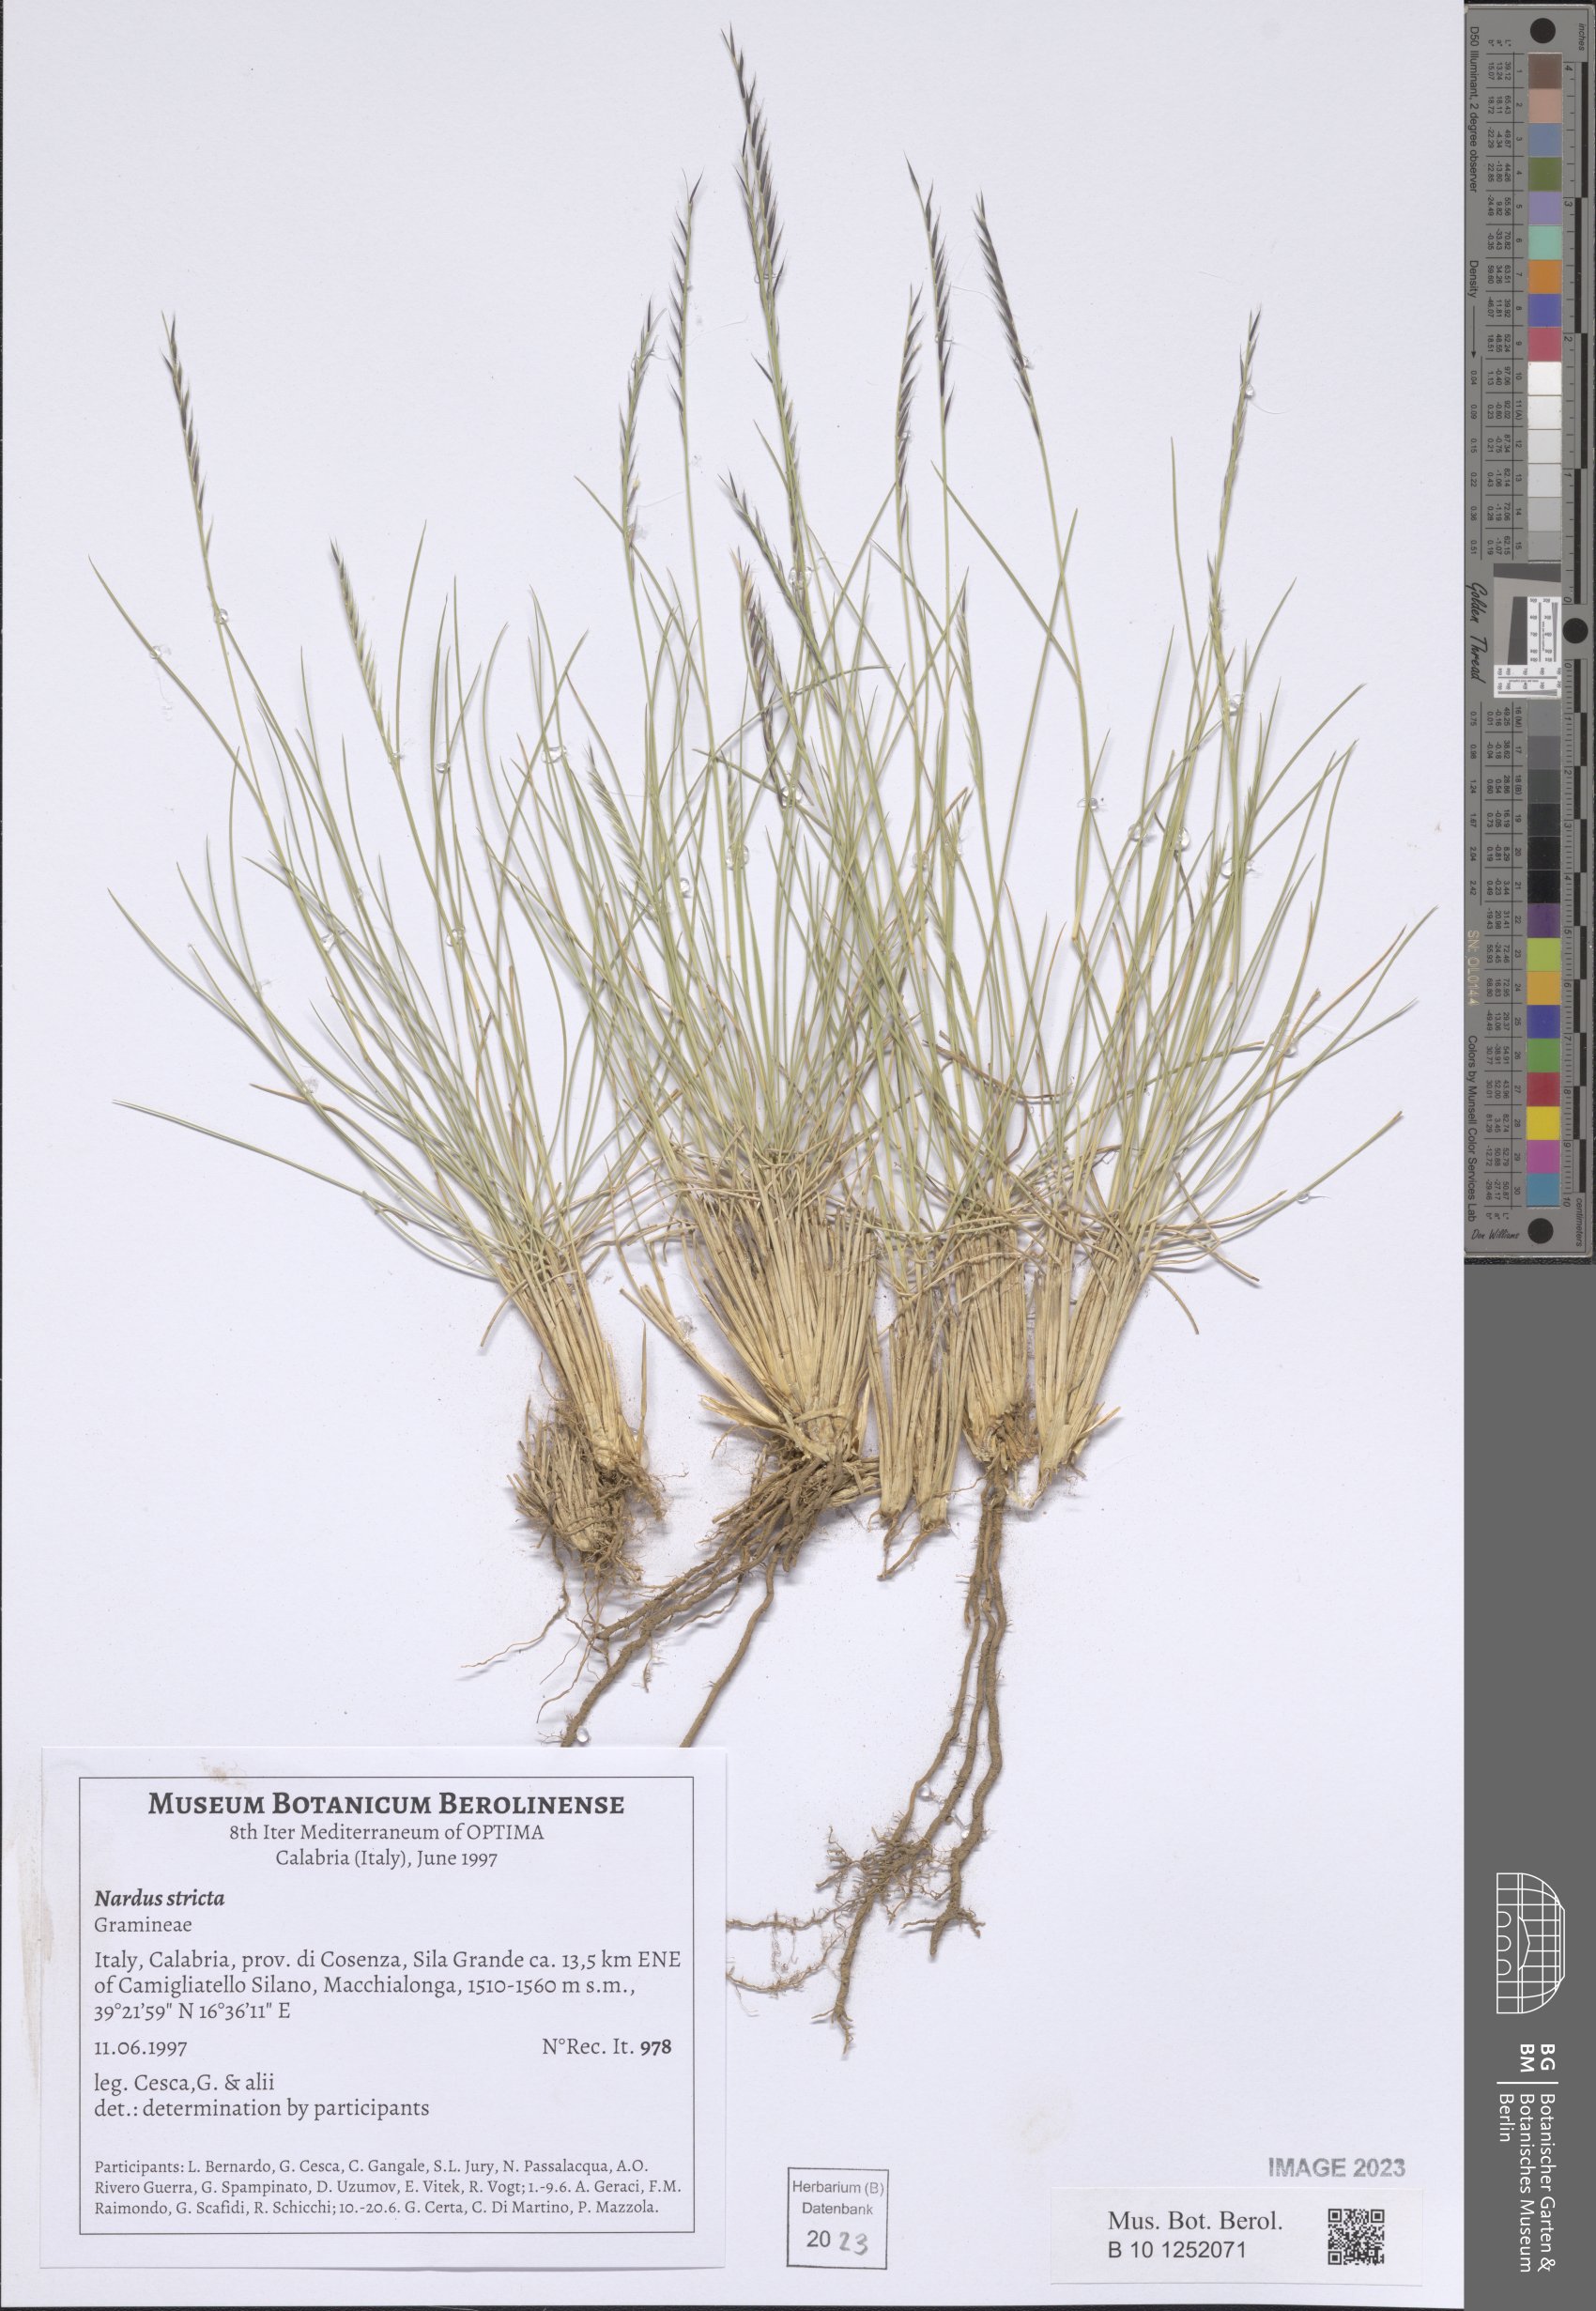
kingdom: Plantae
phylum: Tracheophyta
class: Liliopsida
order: Poales
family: Poaceae
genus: Nardus
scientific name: Nardus stricta
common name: Mat-grass
